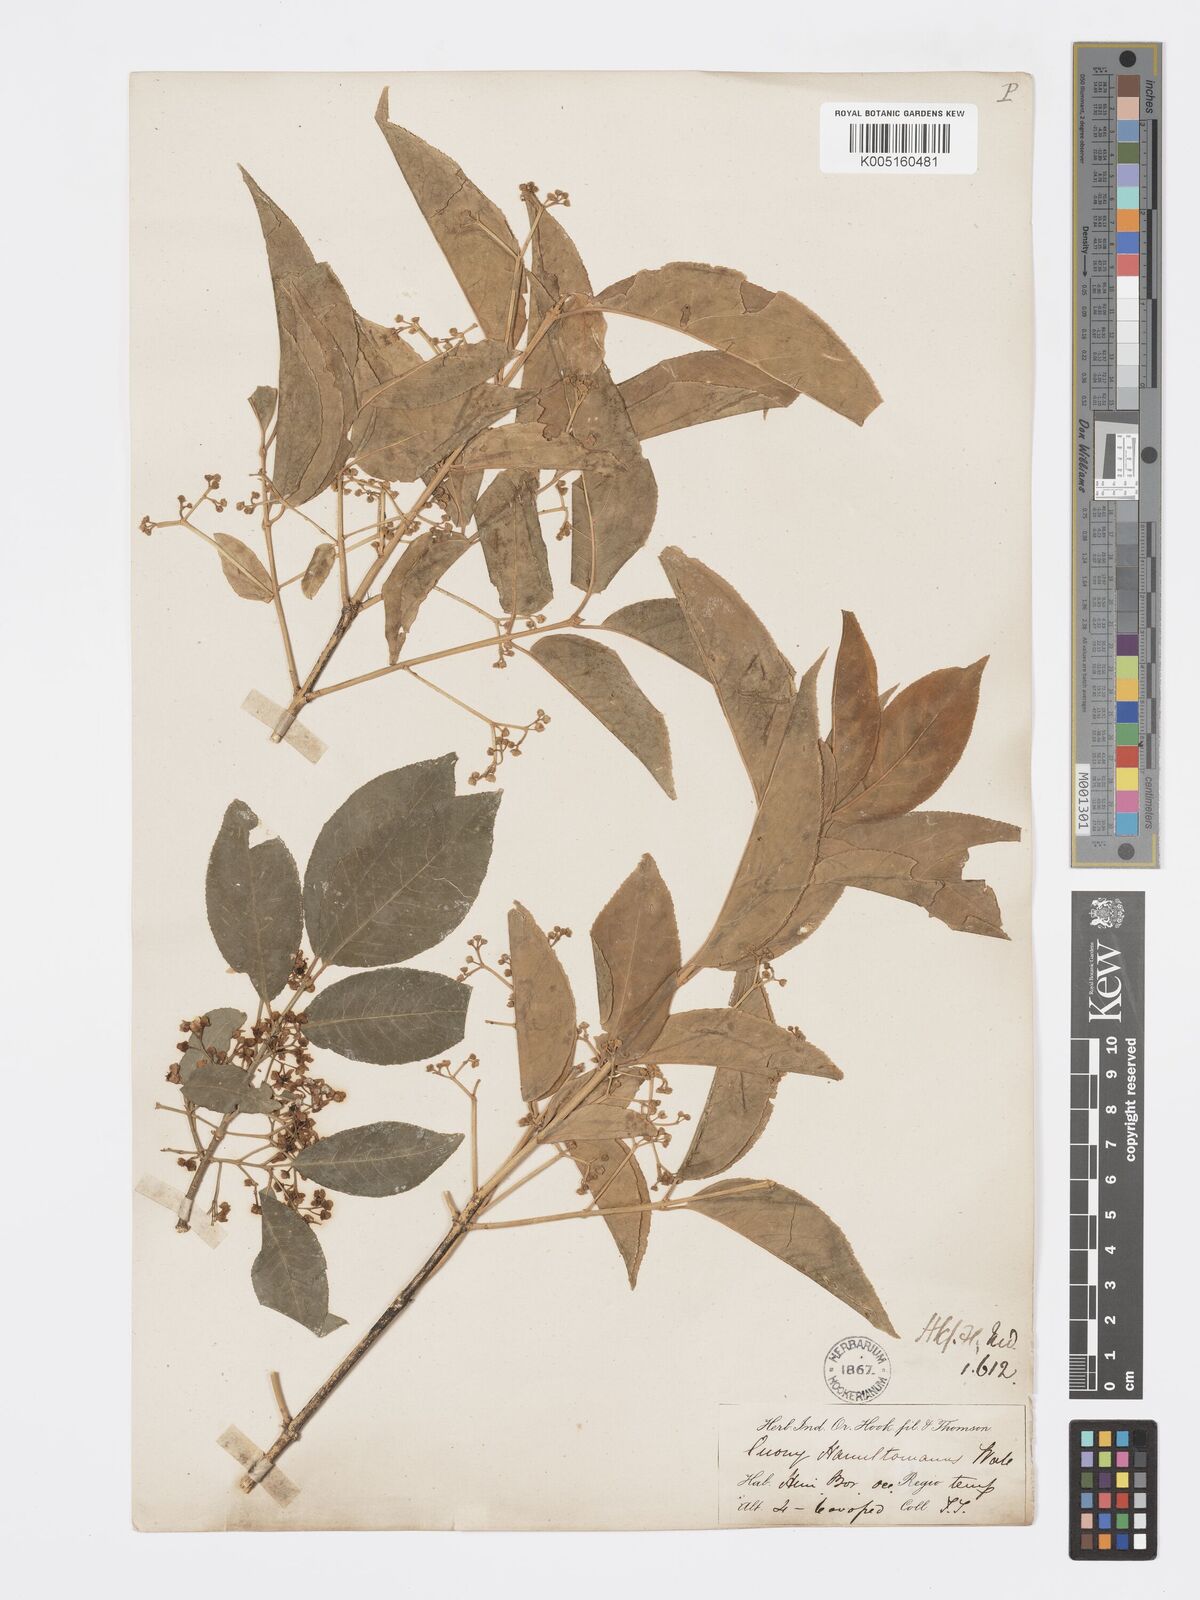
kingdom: Plantae
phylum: Tracheophyta
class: Magnoliopsida
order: Celastrales
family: Celastraceae
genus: Euonymus
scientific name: Euonymus
